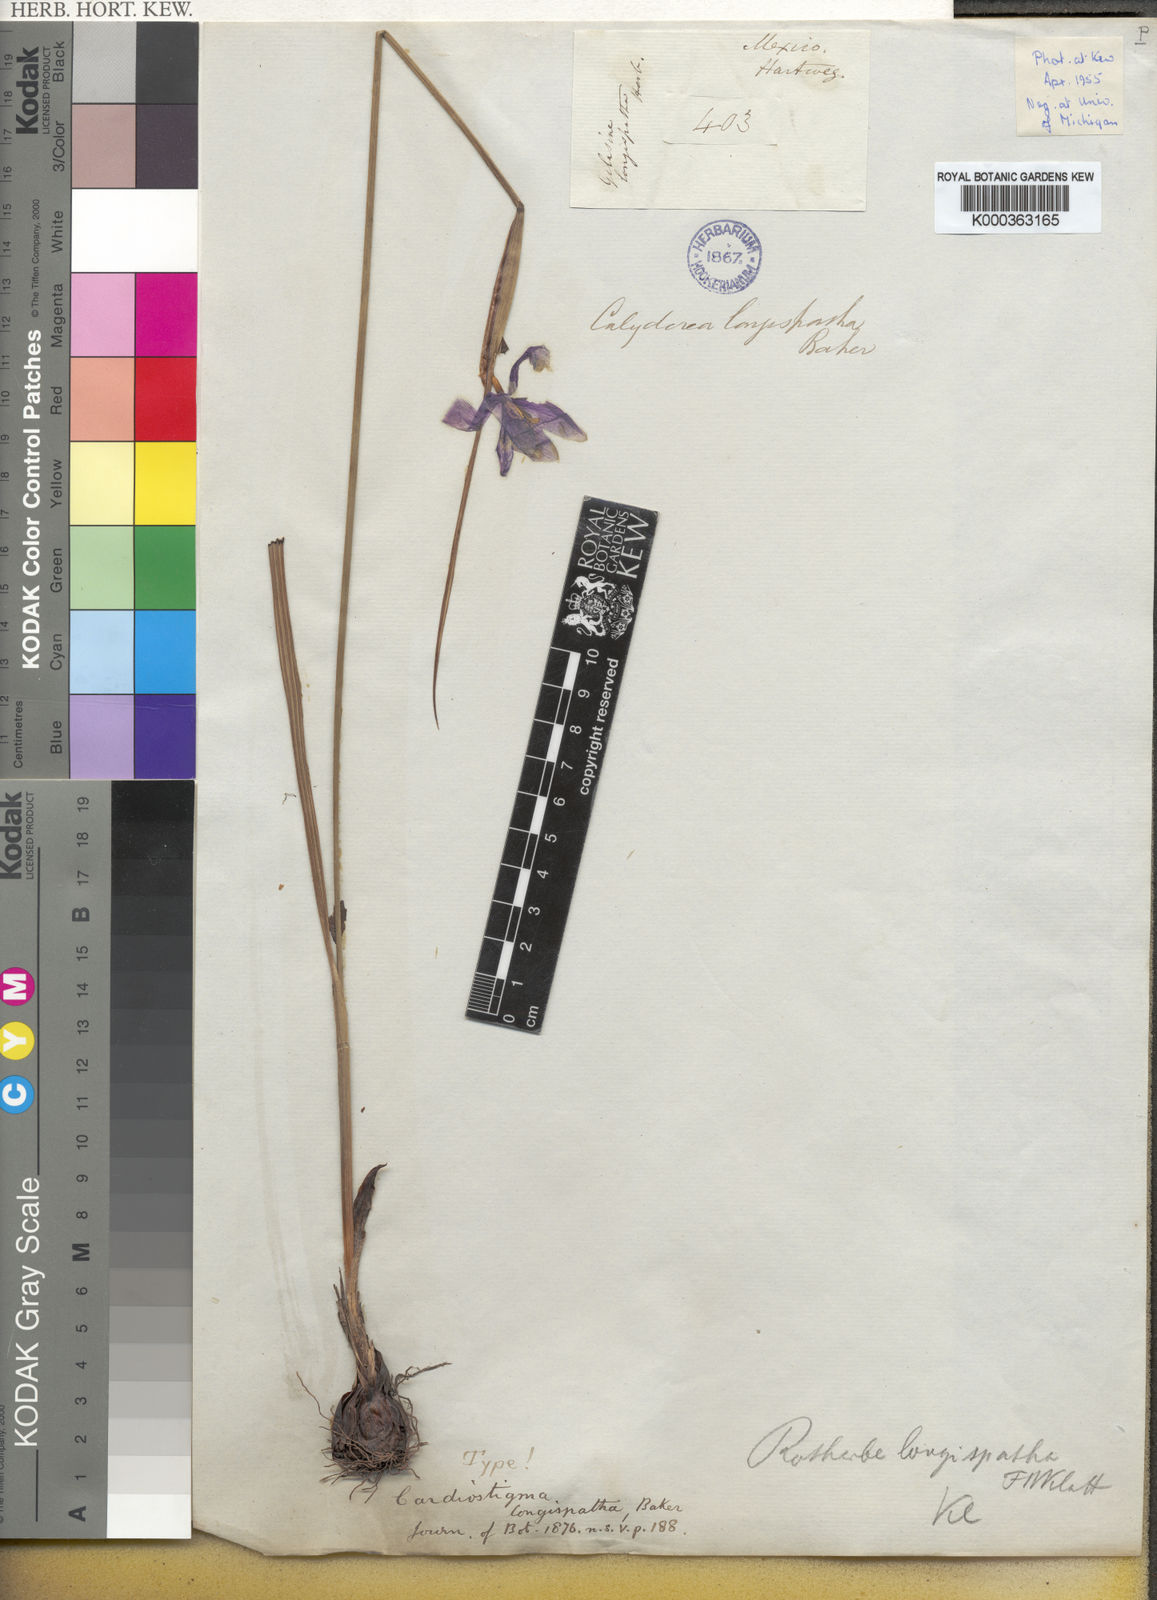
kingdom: Plantae
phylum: Tracheophyta
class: Liliopsida
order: Asparagales
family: Iridaceae
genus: Tigridia
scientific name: Tigridia longispatha
